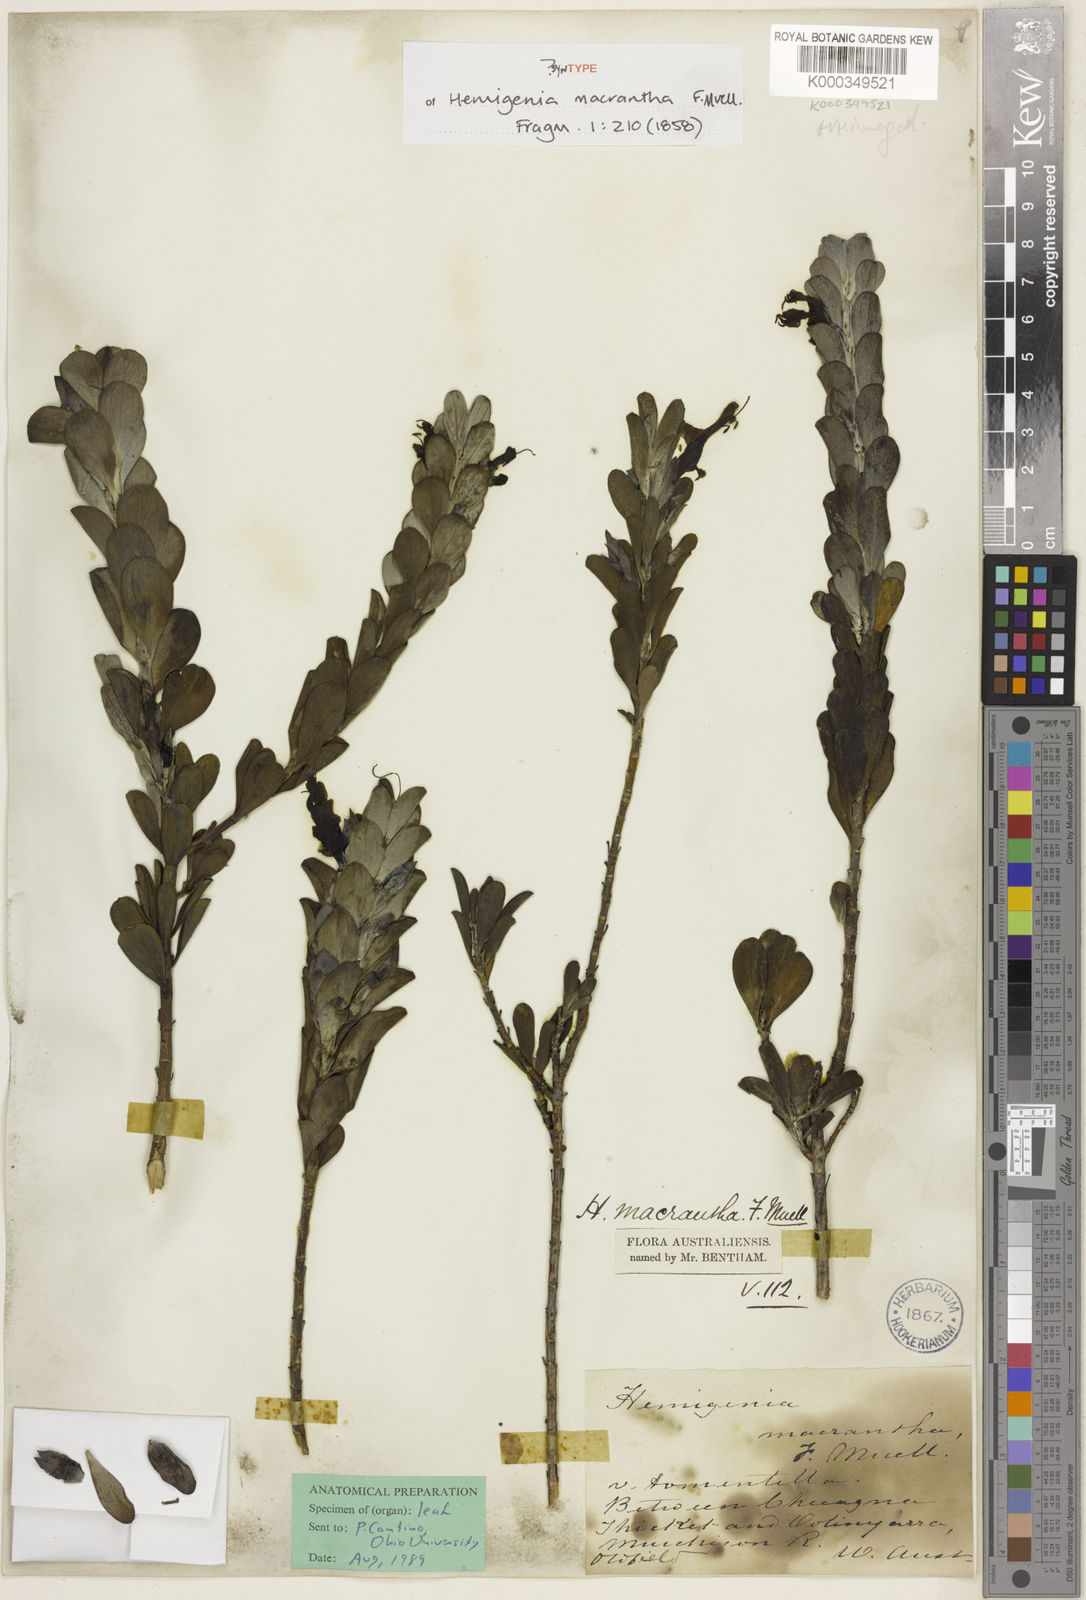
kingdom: Plantae
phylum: Tracheophyta
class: Magnoliopsida
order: Lamiales
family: Lamiaceae
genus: Hemigenia
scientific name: Hemigenia macrantha
